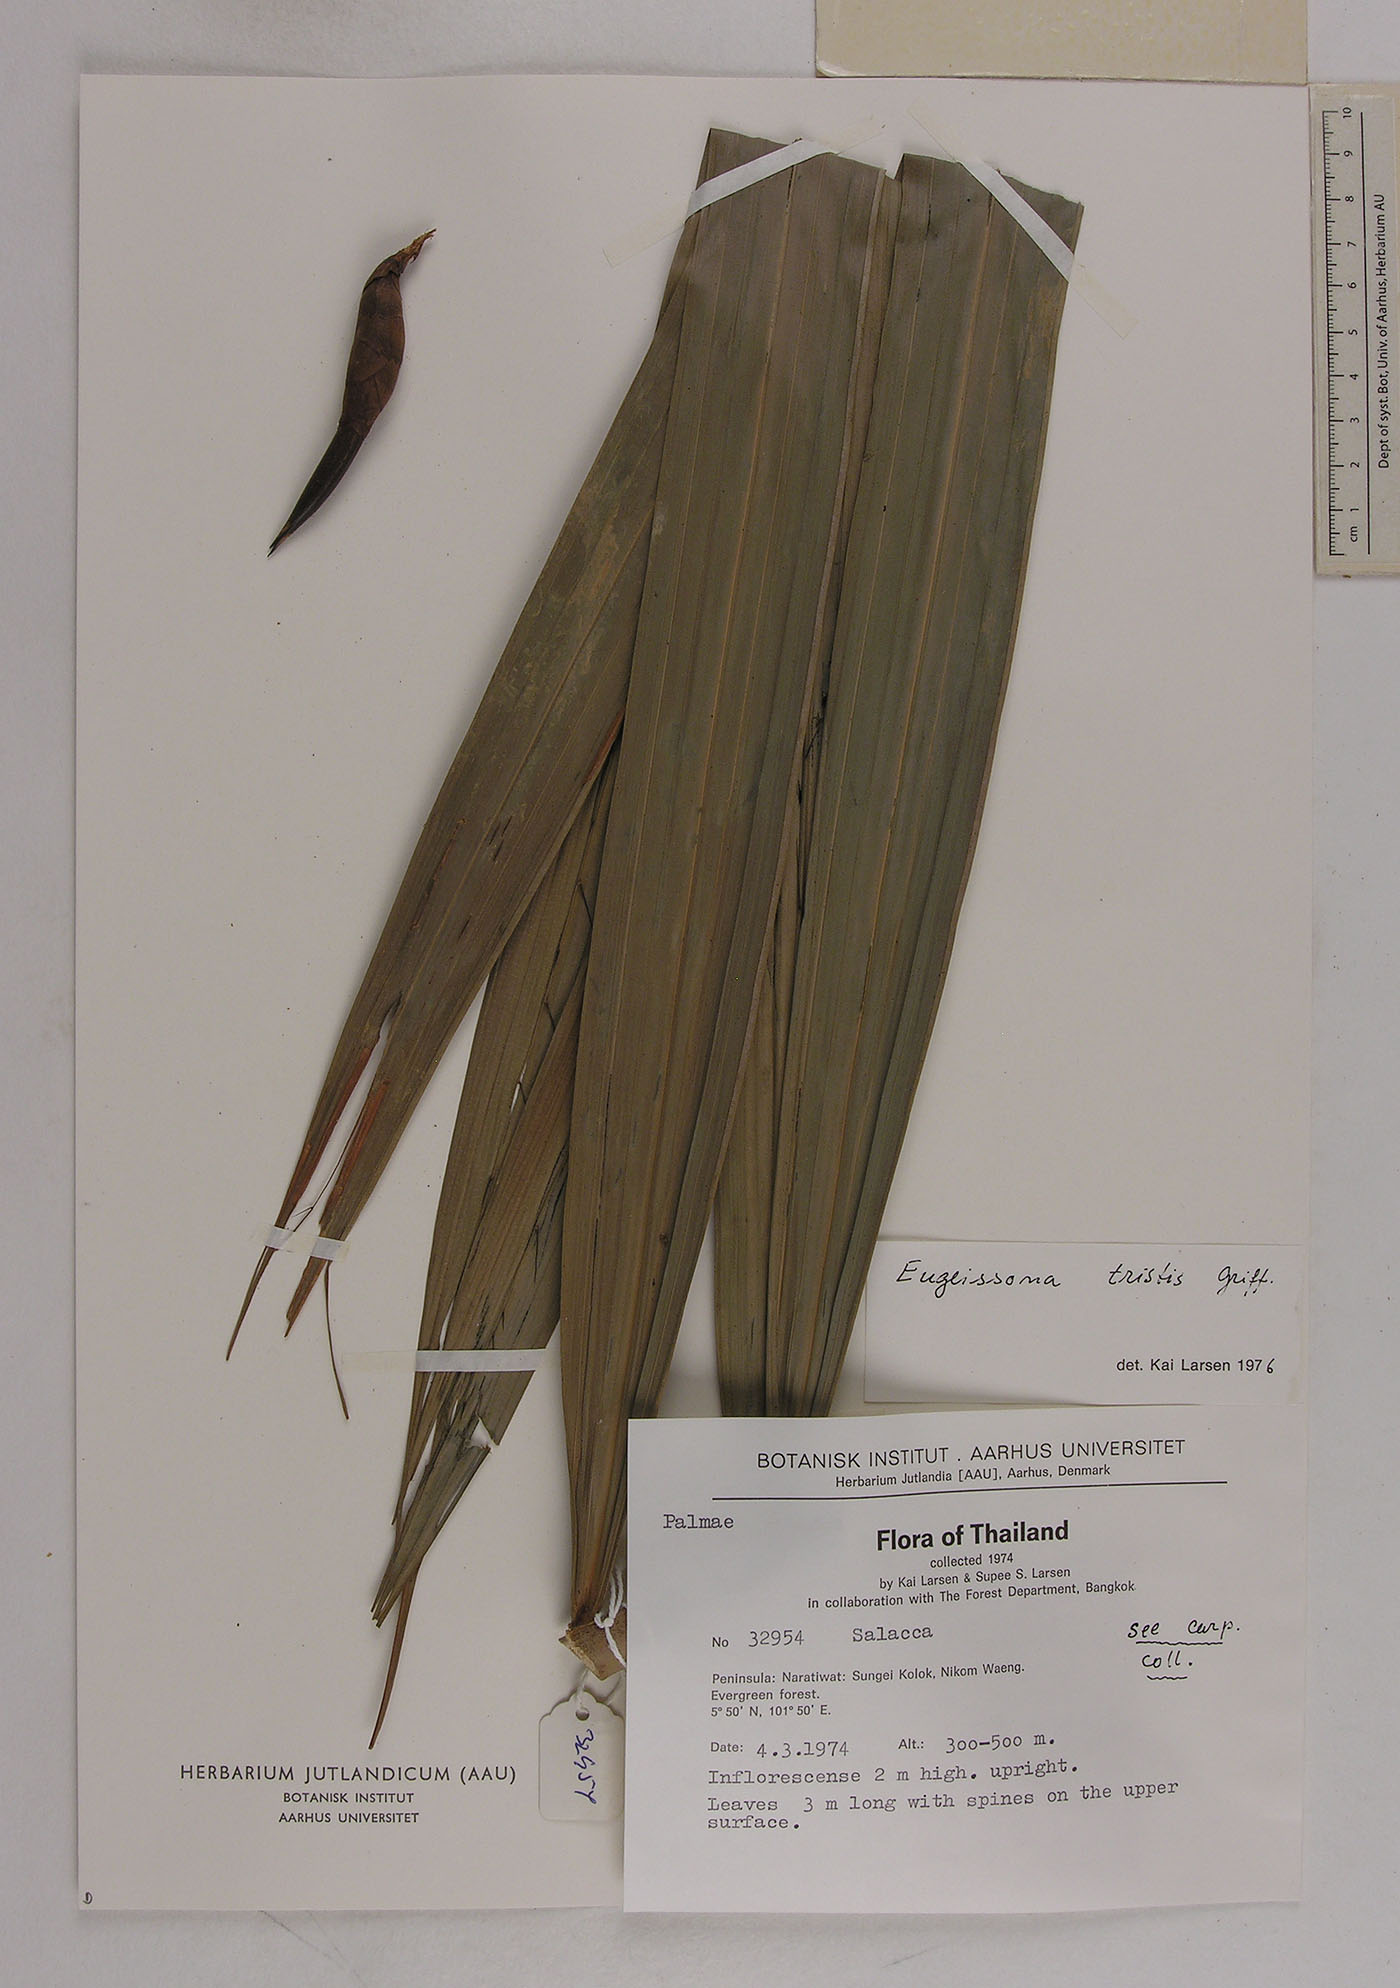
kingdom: Plantae
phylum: Tracheophyta
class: Liliopsida
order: Arecales
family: Arecaceae
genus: Eugeissona
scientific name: Eugeissona tristis
